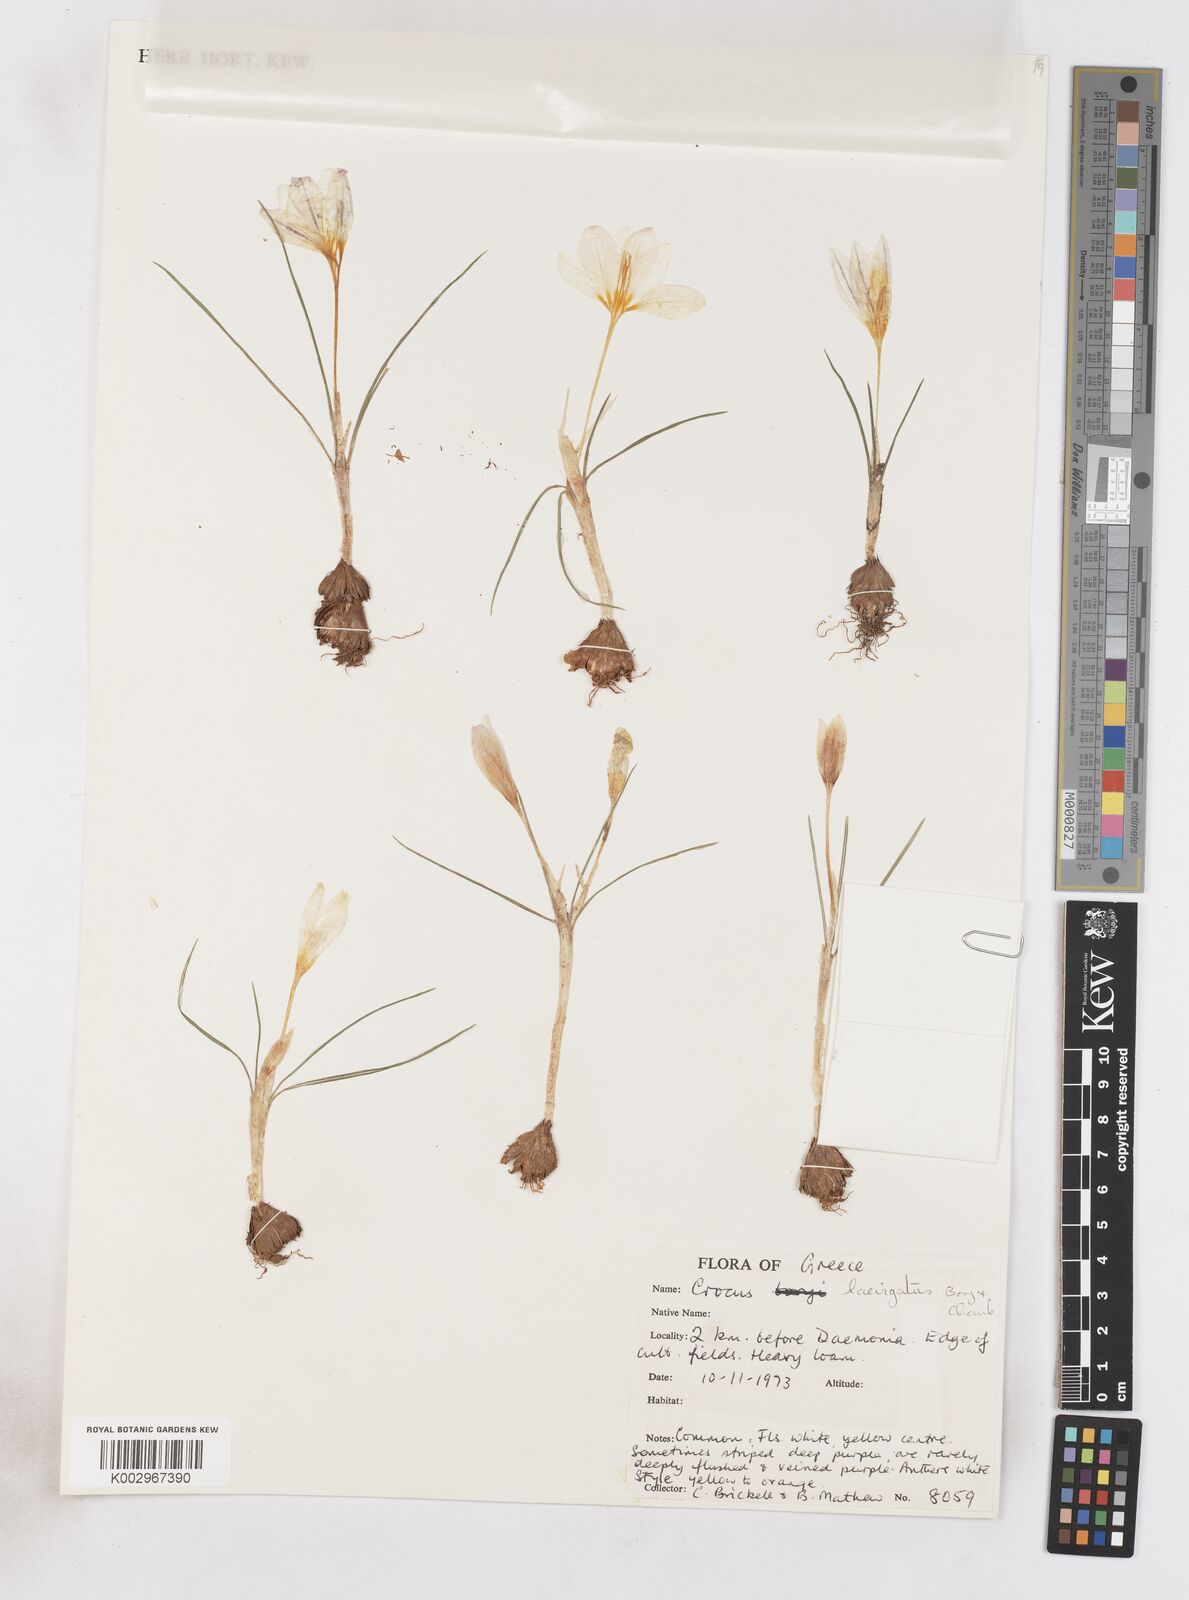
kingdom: Plantae
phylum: Tracheophyta
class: Liliopsida
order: Asparagales
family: Iridaceae
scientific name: Iridaceae
